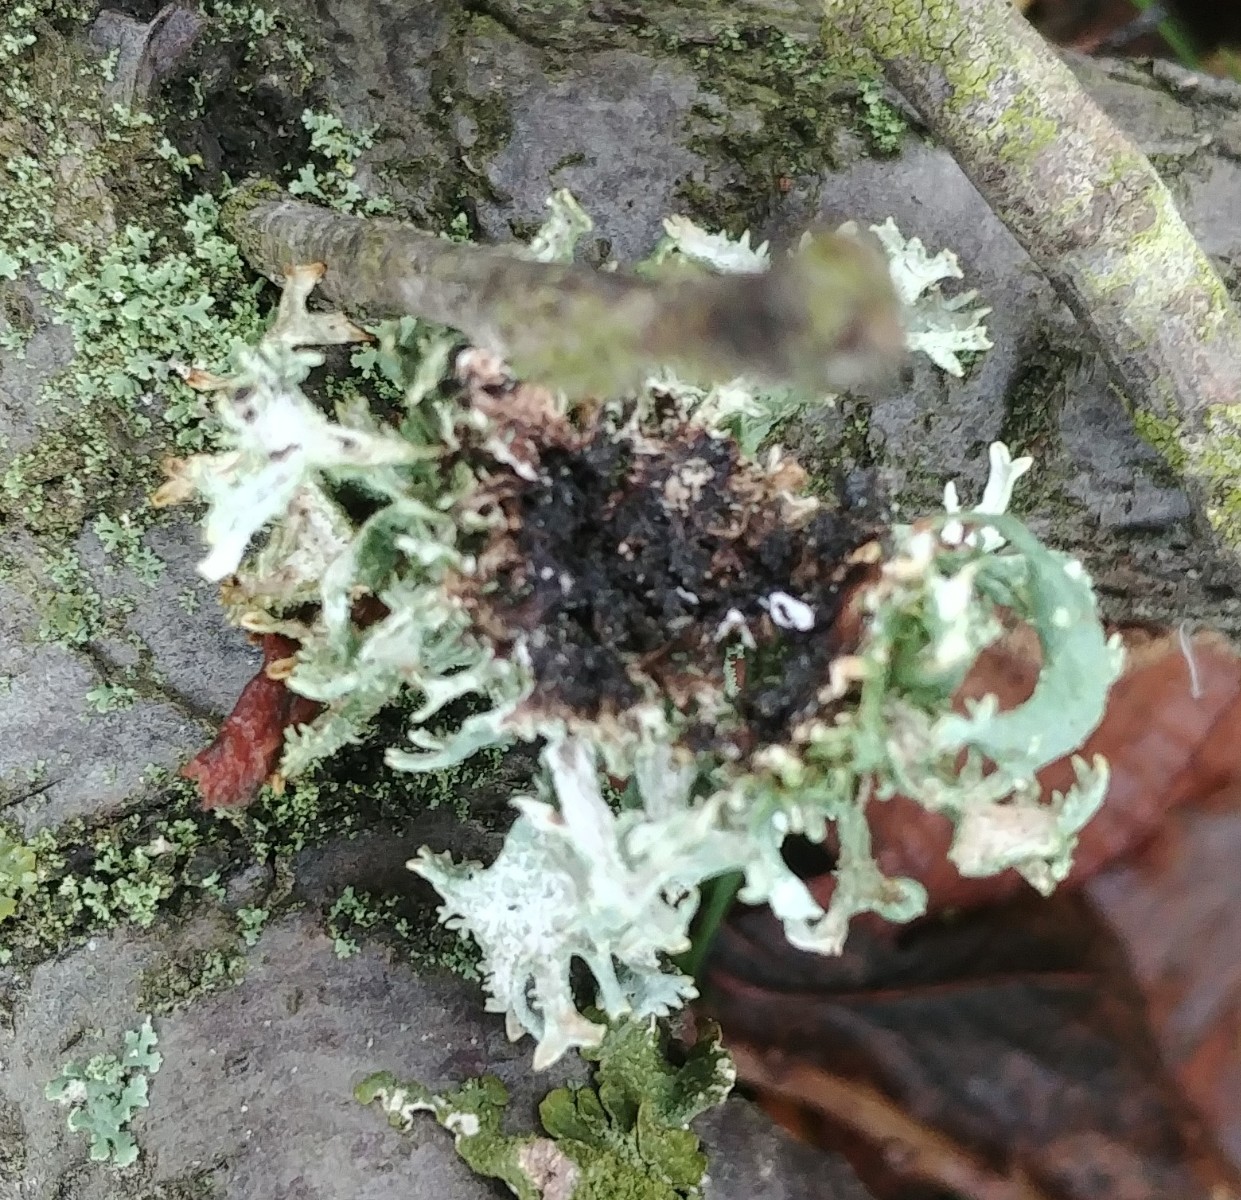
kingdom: Fungi
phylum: Ascomycota
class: Lecanoromycetes
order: Lecanorales
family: Parmeliaceae
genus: Pseudevernia
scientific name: Pseudevernia furfuracea
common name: grå fyrrelav
